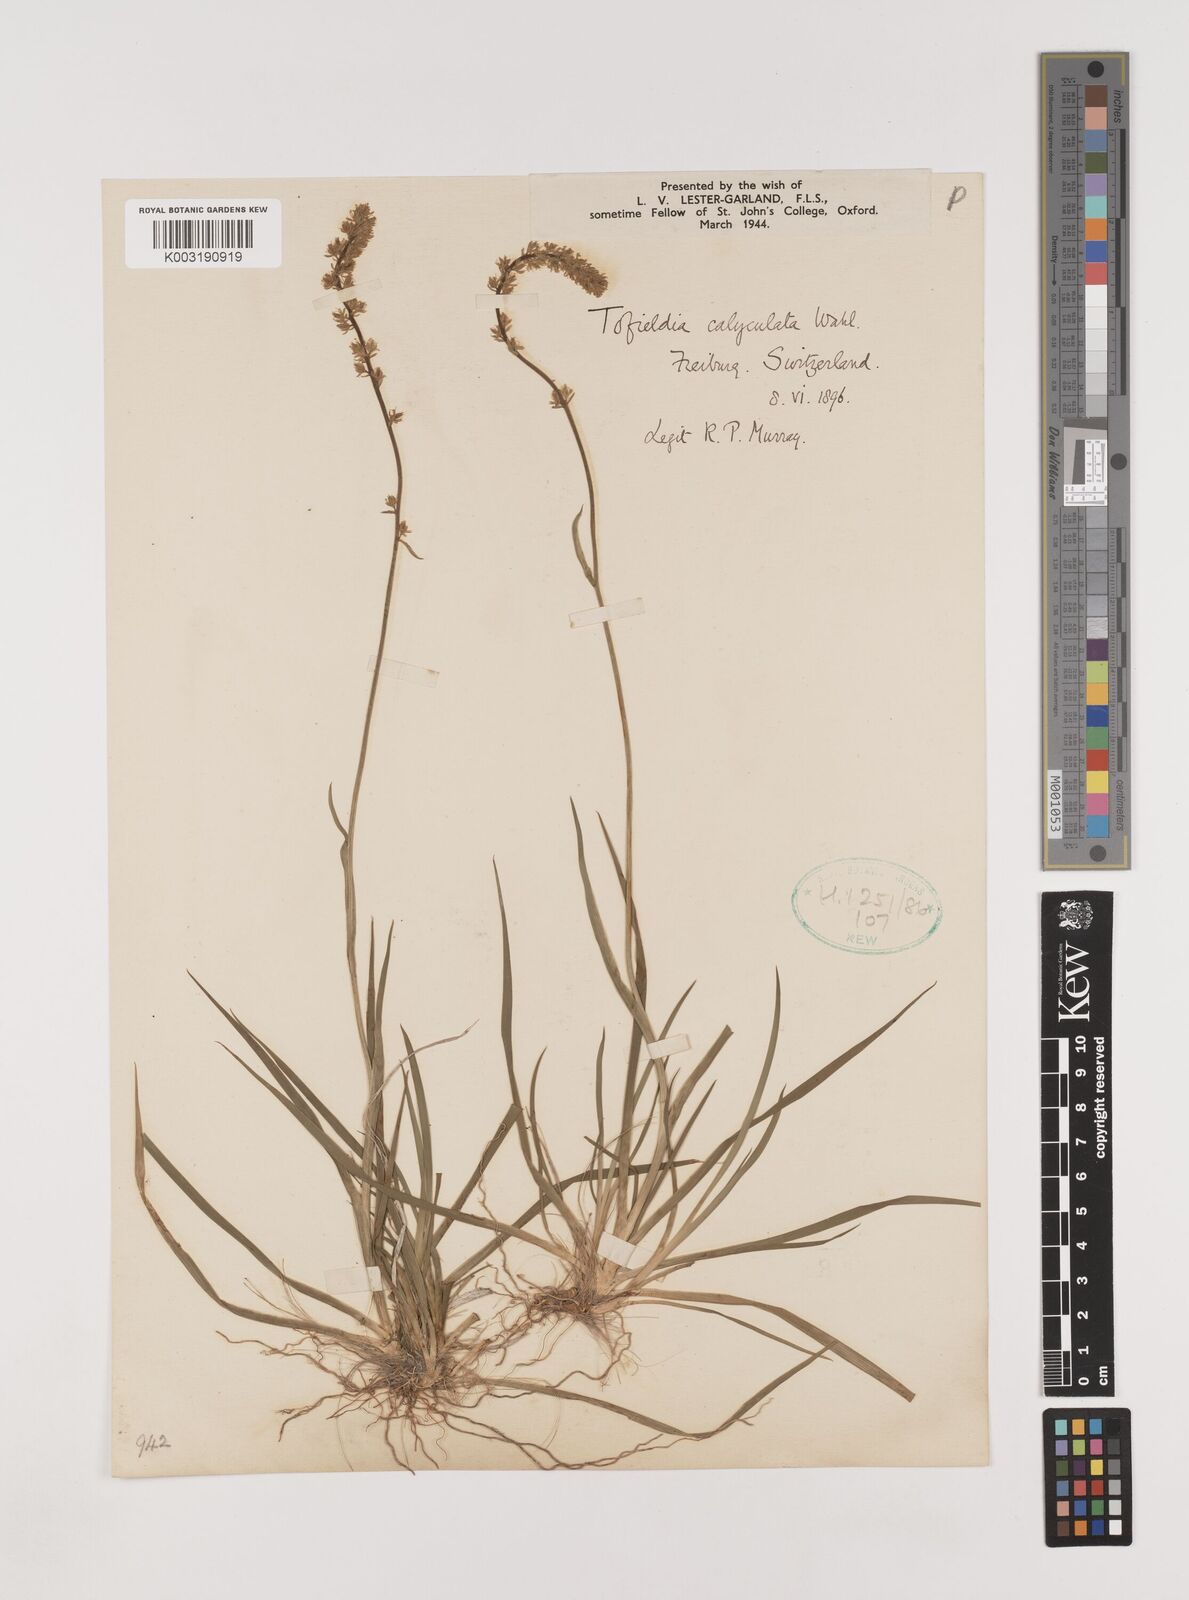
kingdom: Plantae
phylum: Tracheophyta
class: Liliopsida
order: Alismatales
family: Tofieldiaceae
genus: Tofieldia
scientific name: Tofieldia calyculata
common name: German-asphodel
